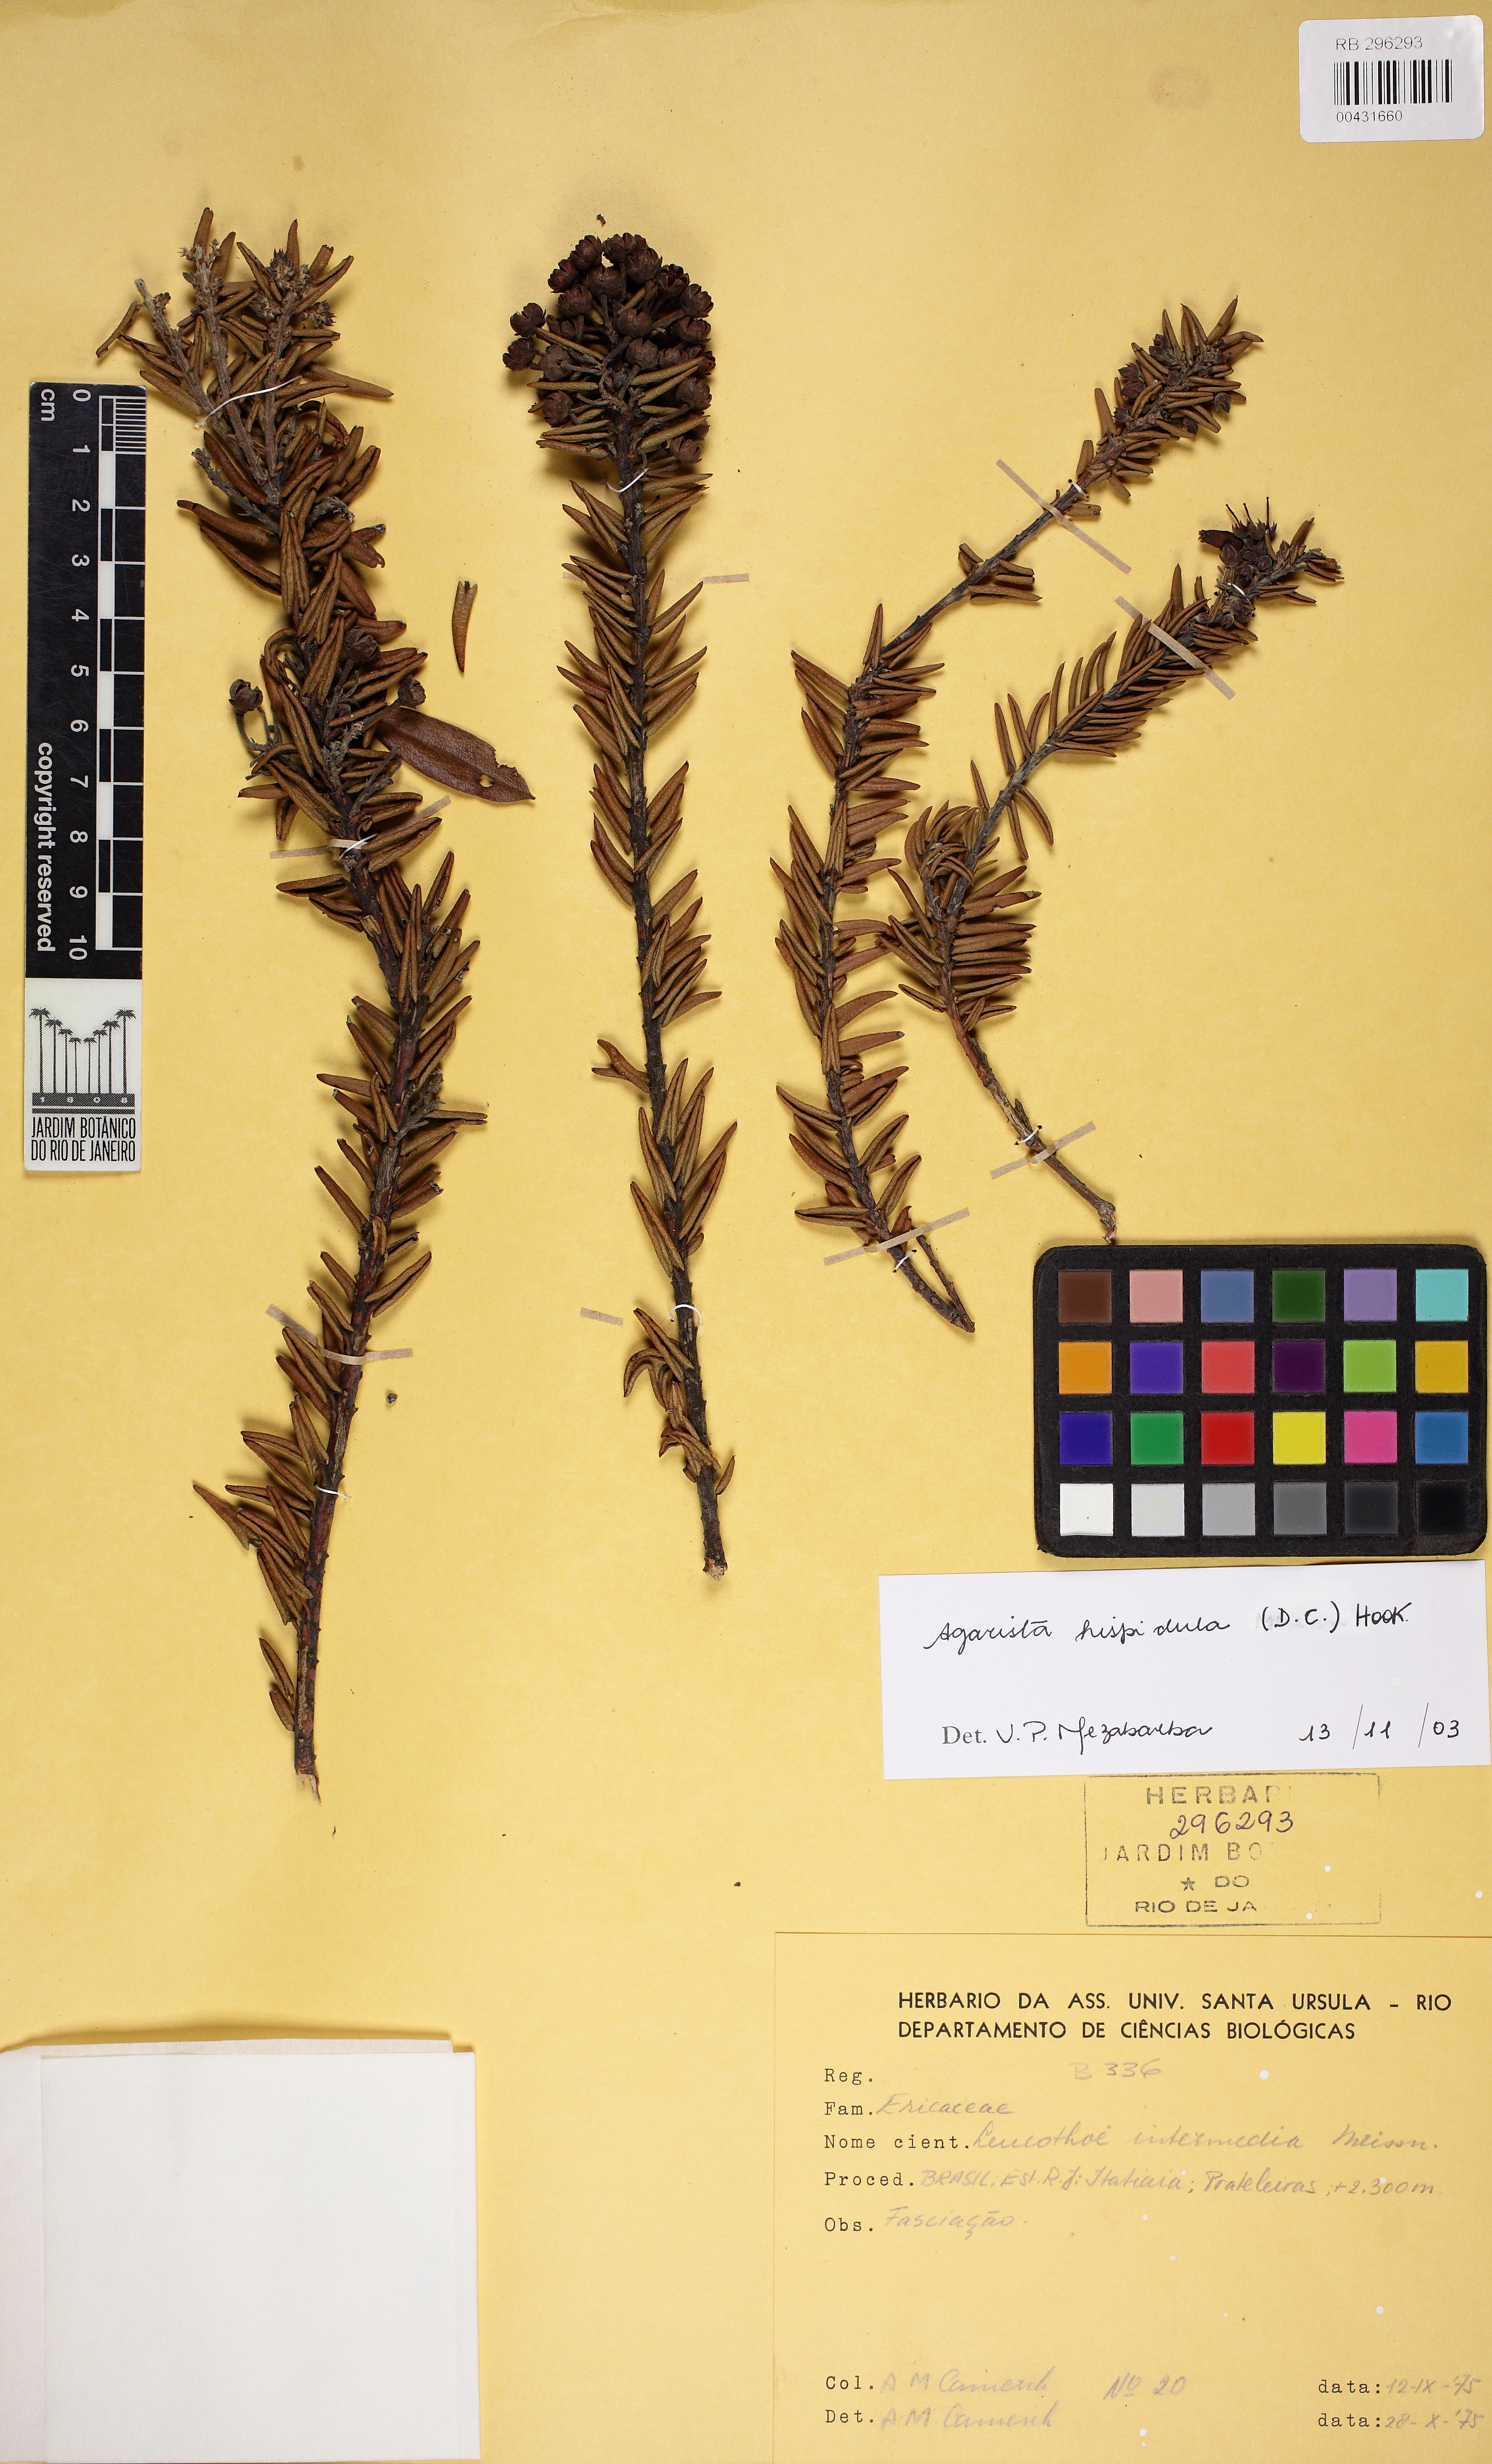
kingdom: Plantae
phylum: Tracheophyta
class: Magnoliopsida
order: Ericales
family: Ericaceae
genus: Agarista
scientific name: Agarista hispidula
